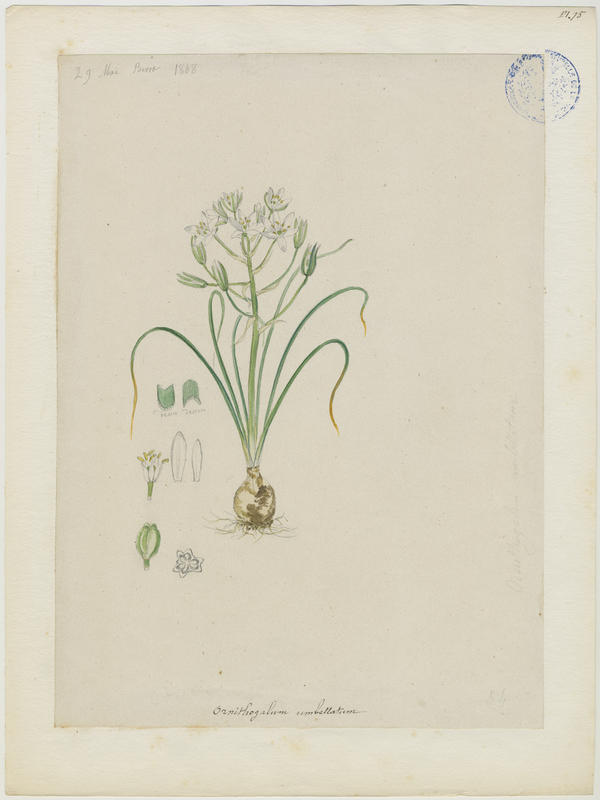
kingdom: Plantae
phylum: Tracheophyta
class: Liliopsida
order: Asparagales
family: Asparagaceae
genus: Ornithogalum
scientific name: Ornithogalum umbellatum
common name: Garden star-of-bethlehem
